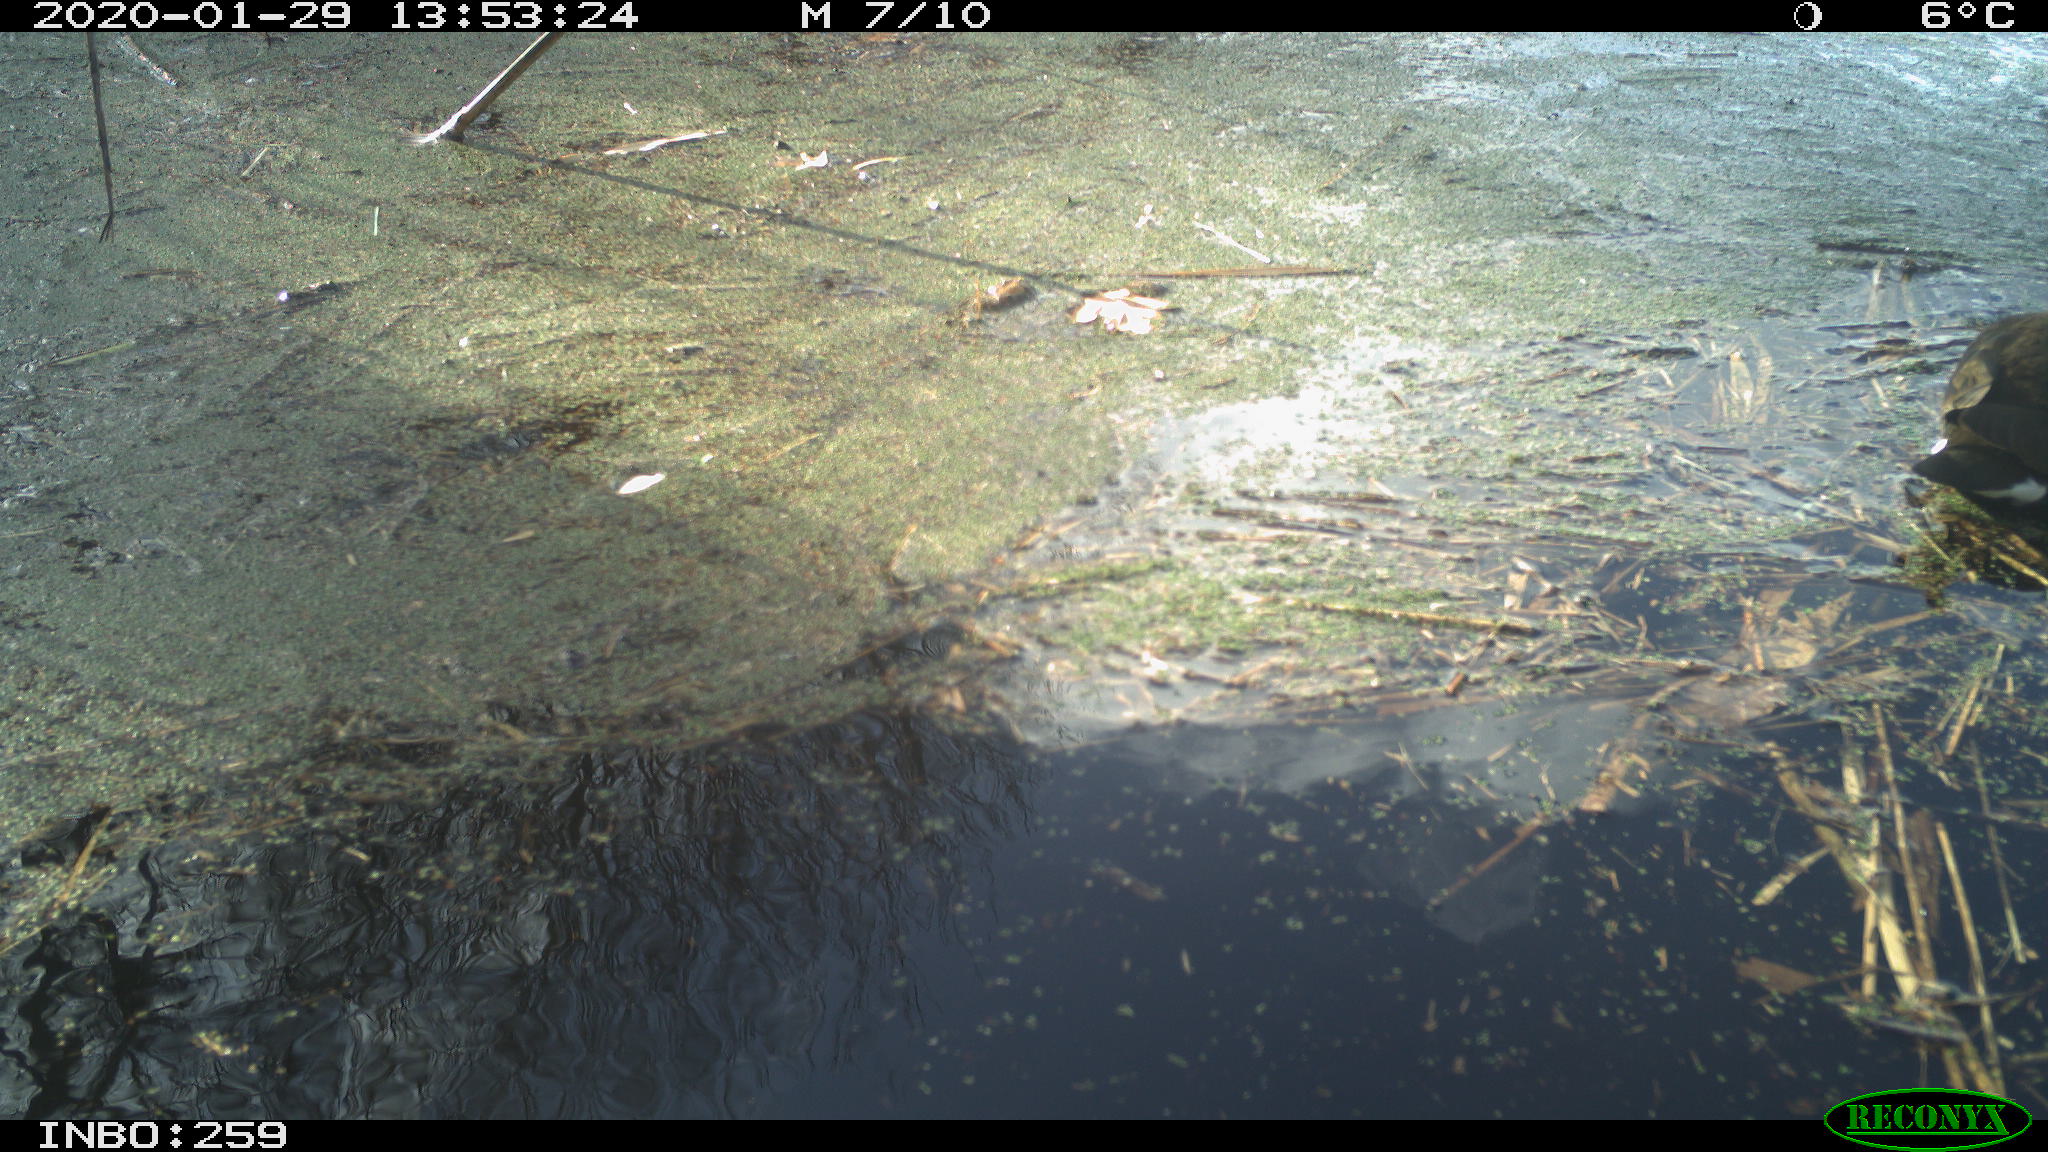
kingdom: Animalia
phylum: Chordata
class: Aves
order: Gruiformes
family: Rallidae
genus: Gallinula
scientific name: Gallinula chloropus
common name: Common moorhen
